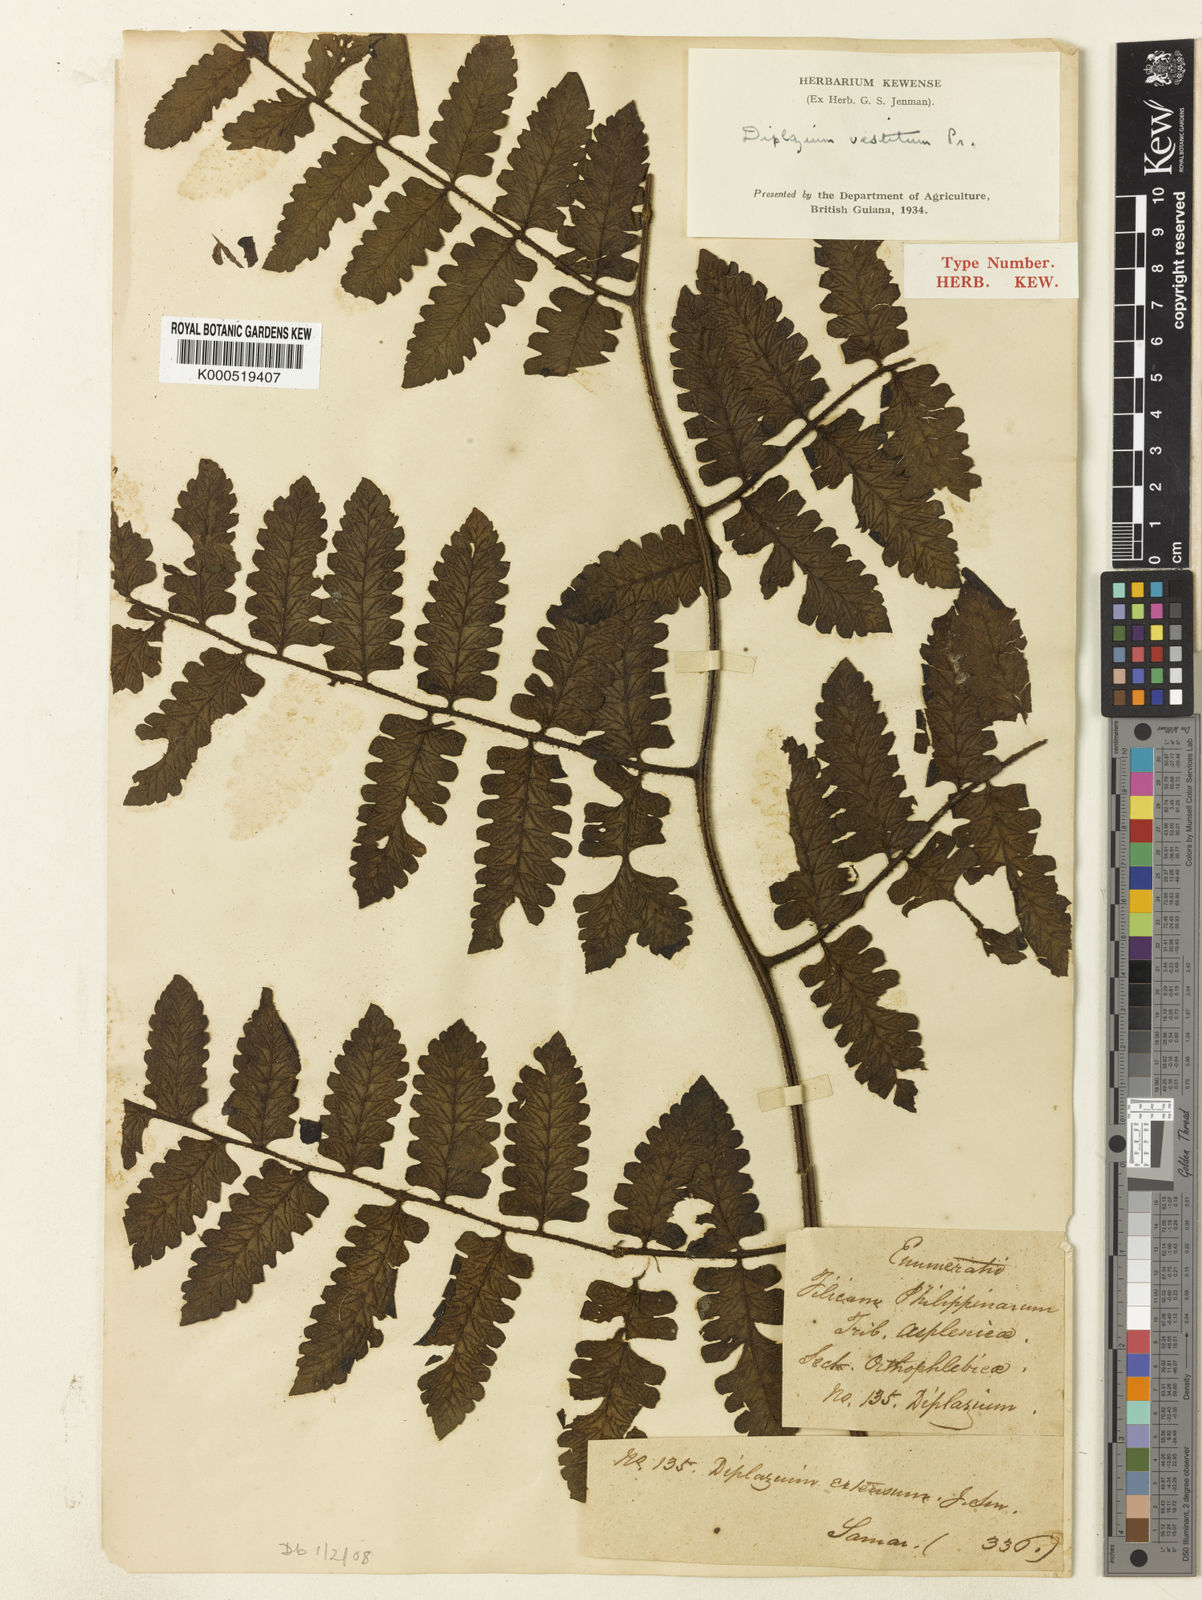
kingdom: Plantae
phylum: Tracheophyta
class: Polypodiopsida
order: Polypodiales
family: Athyriaceae
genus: Diplazium
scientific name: Diplazium
